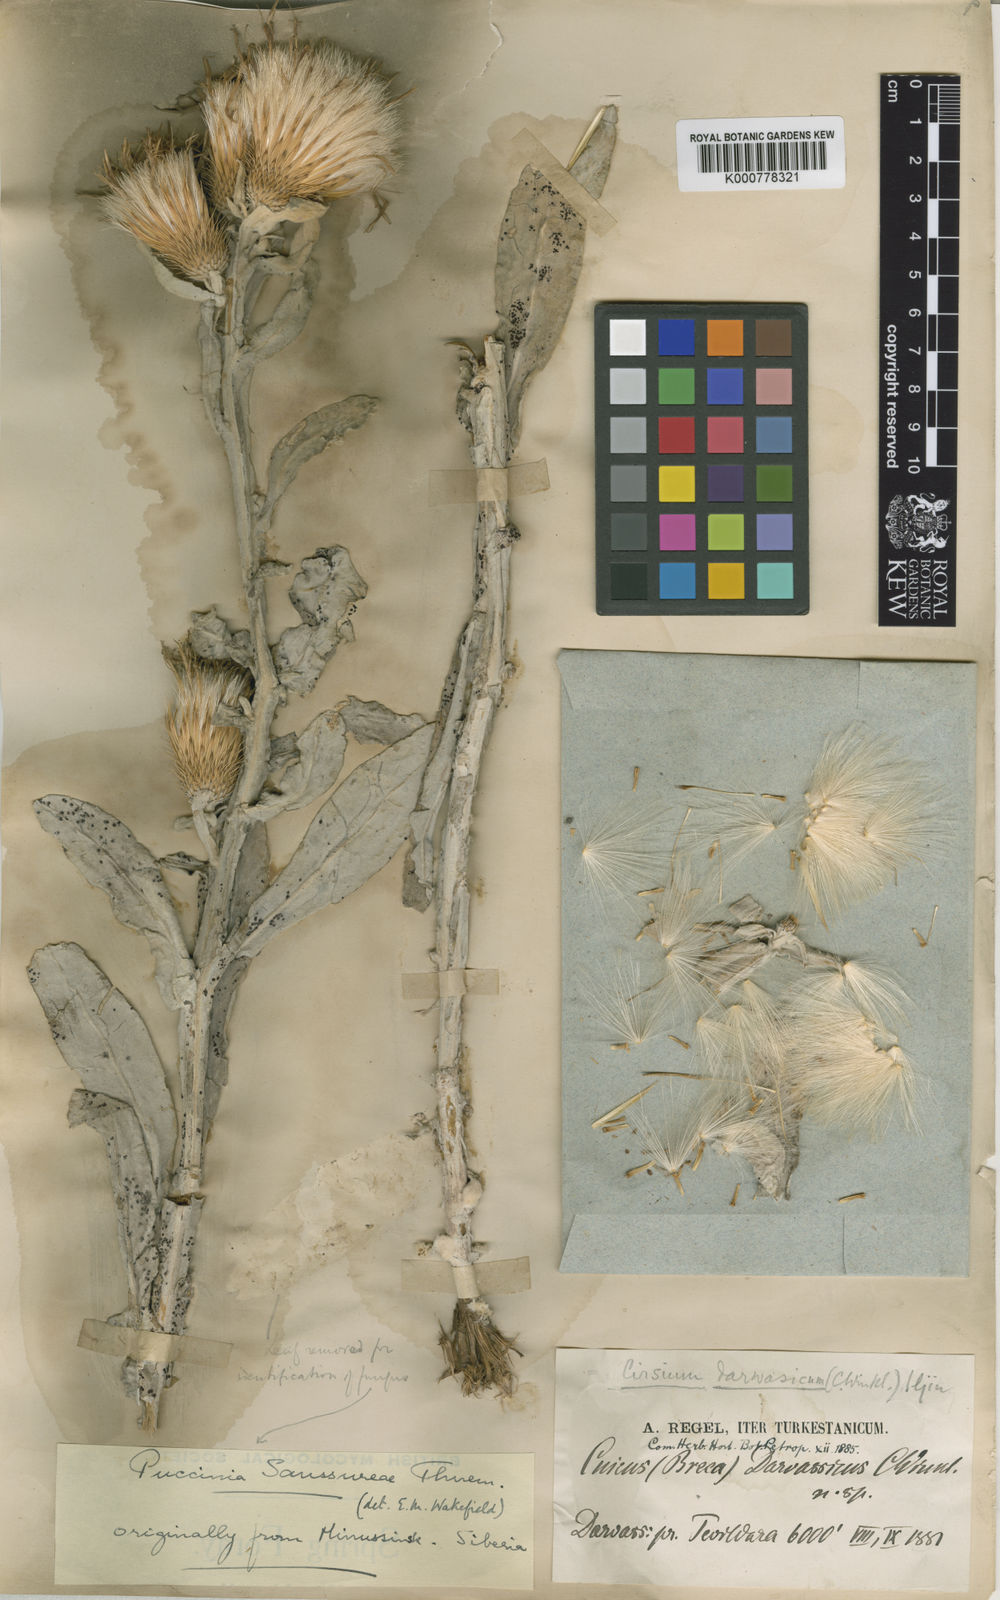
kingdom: Plantae
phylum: Tracheophyta
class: Magnoliopsida
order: Asterales
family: Asteraceae
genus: Ancathia
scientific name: Ancathia
